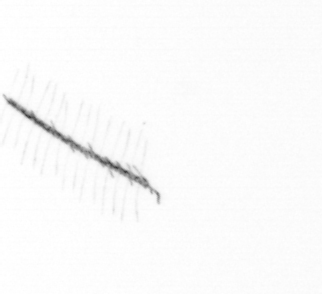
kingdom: Chromista
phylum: Ochrophyta
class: Bacillariophyceae
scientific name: Bacillariophyceae
